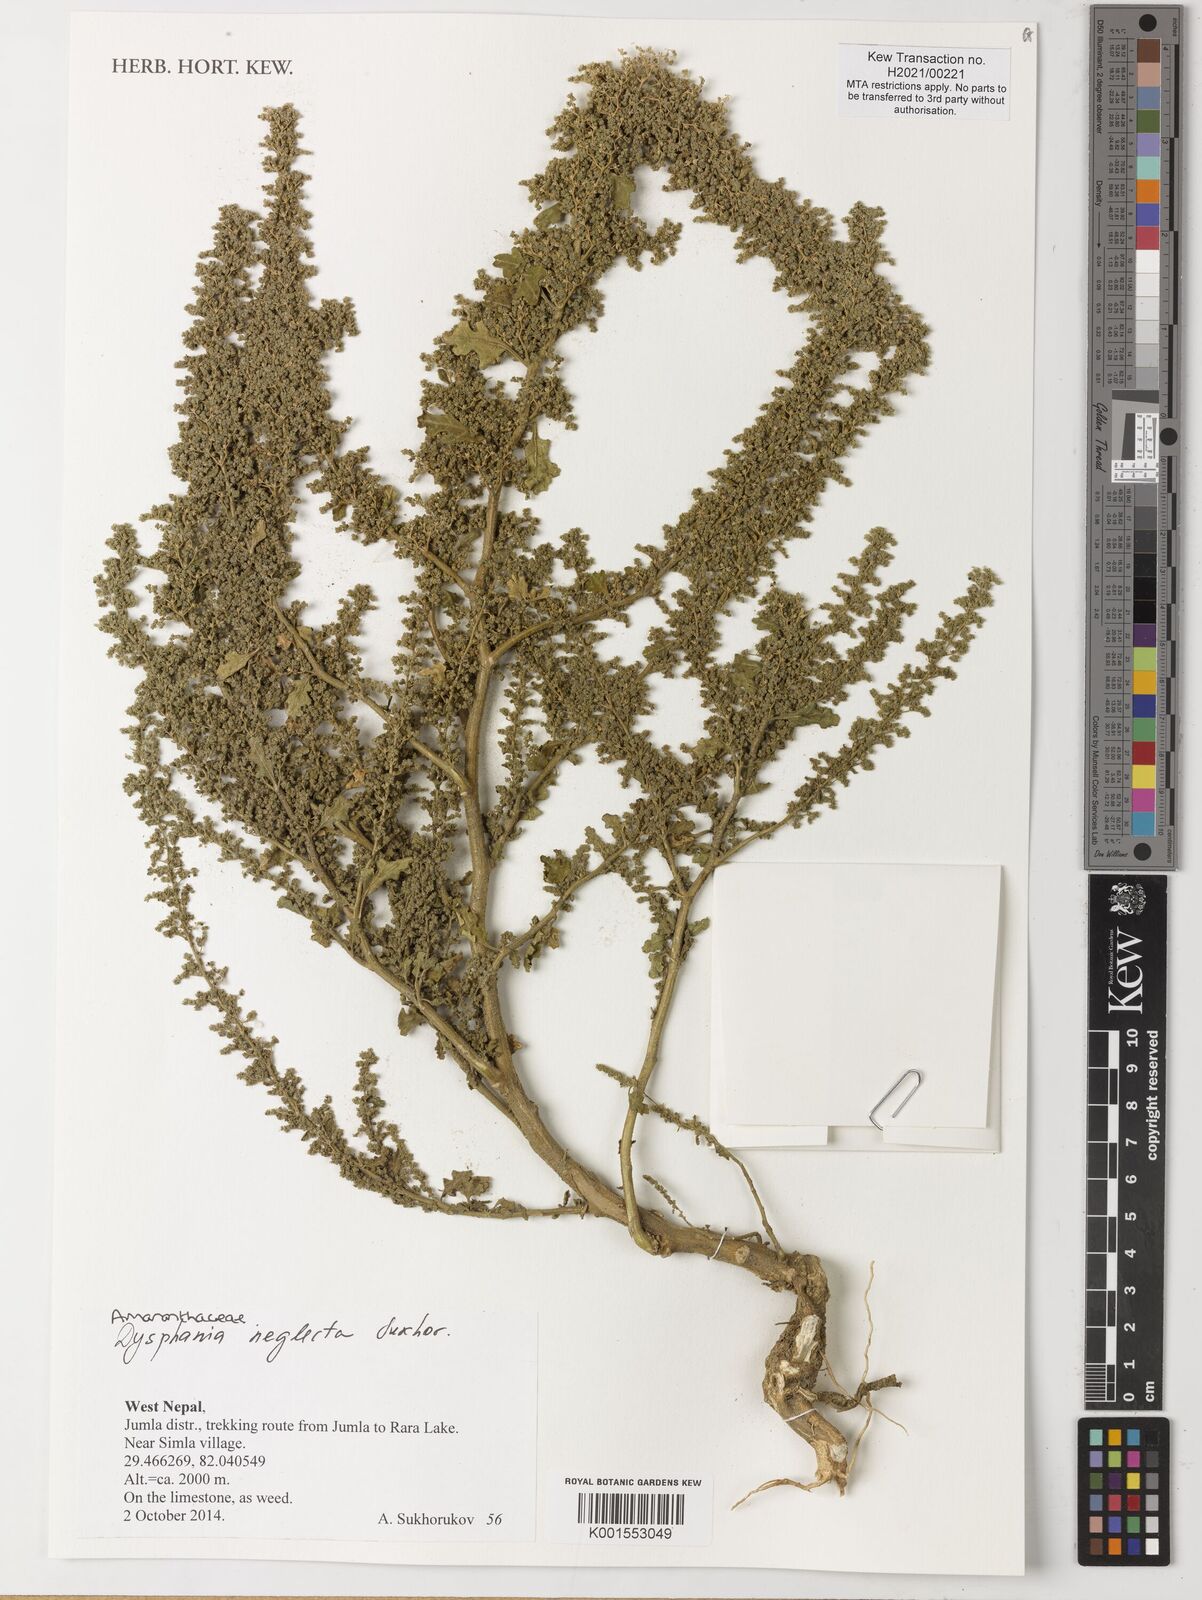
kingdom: Plantae
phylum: Tracheophyta
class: Magnoliopsida
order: Caryophyllales
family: Amaranthaceae
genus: Dysphania
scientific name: Dysphania neglecta
